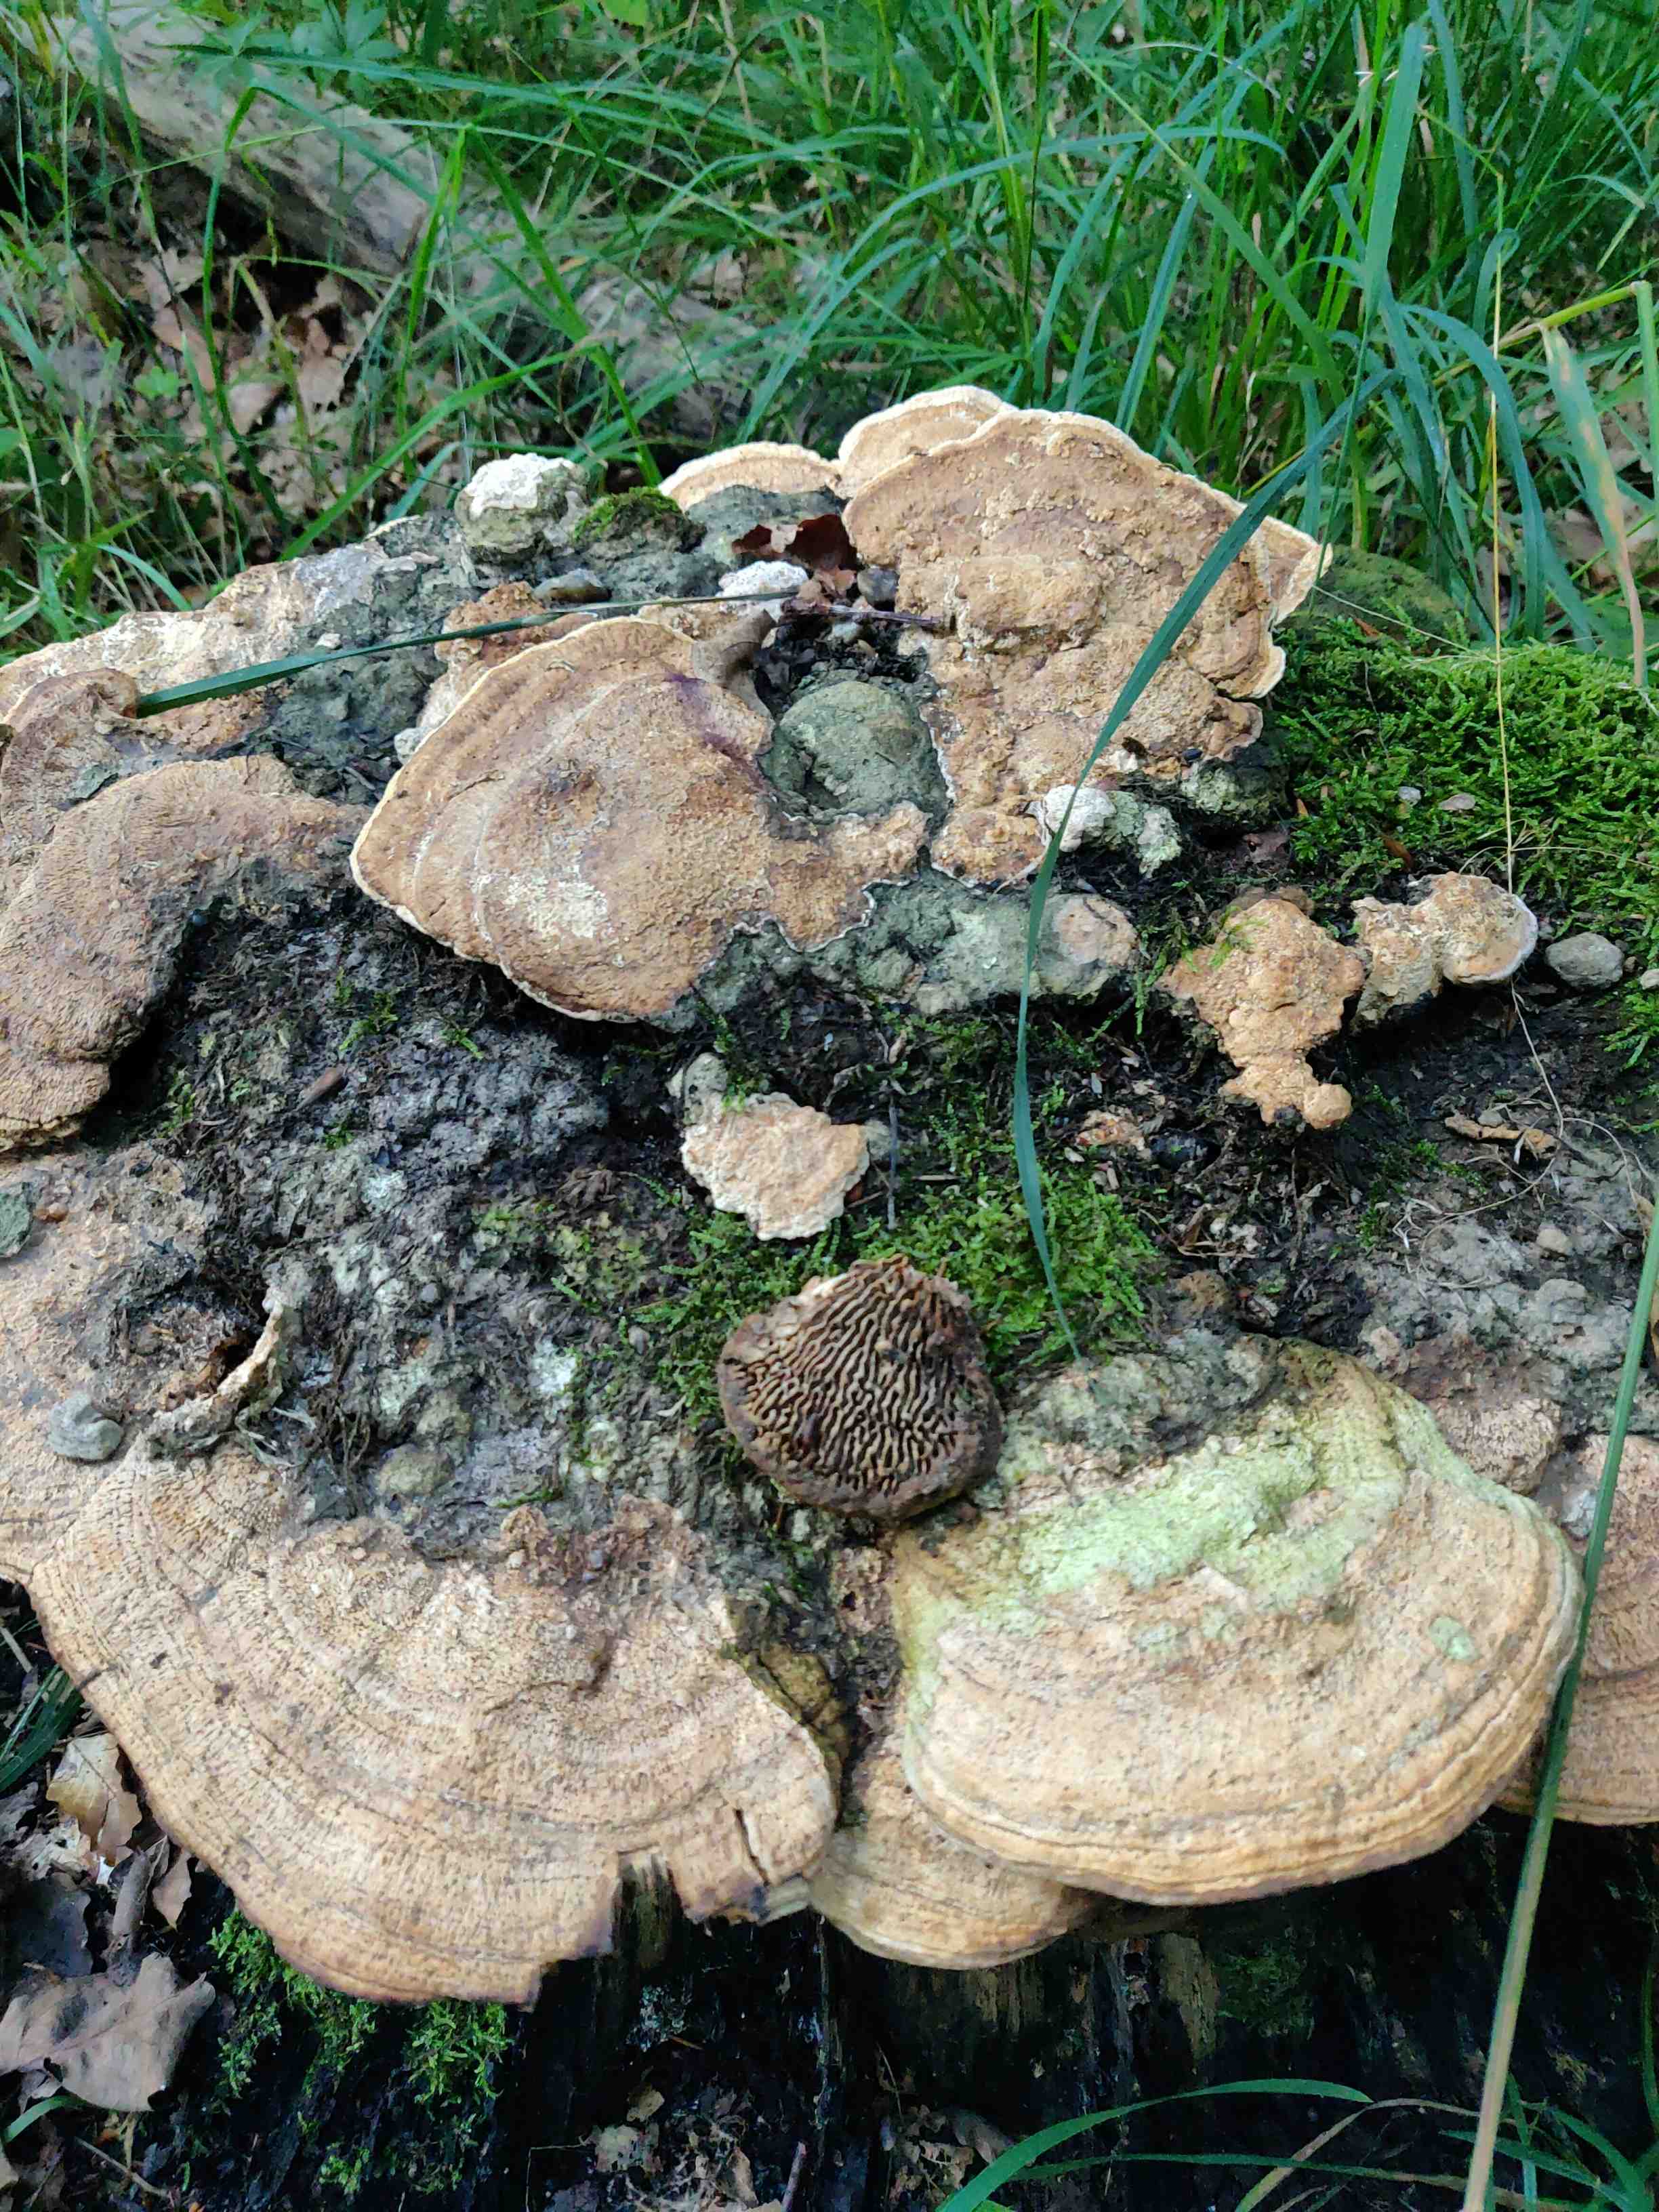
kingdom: Fungi
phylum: Basidiomycota
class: Agaricomycetes
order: Polyporales
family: Fomitopsidaceae
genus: Daedalea
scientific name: Daedalea quercina
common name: ege-labyrintsvamp
